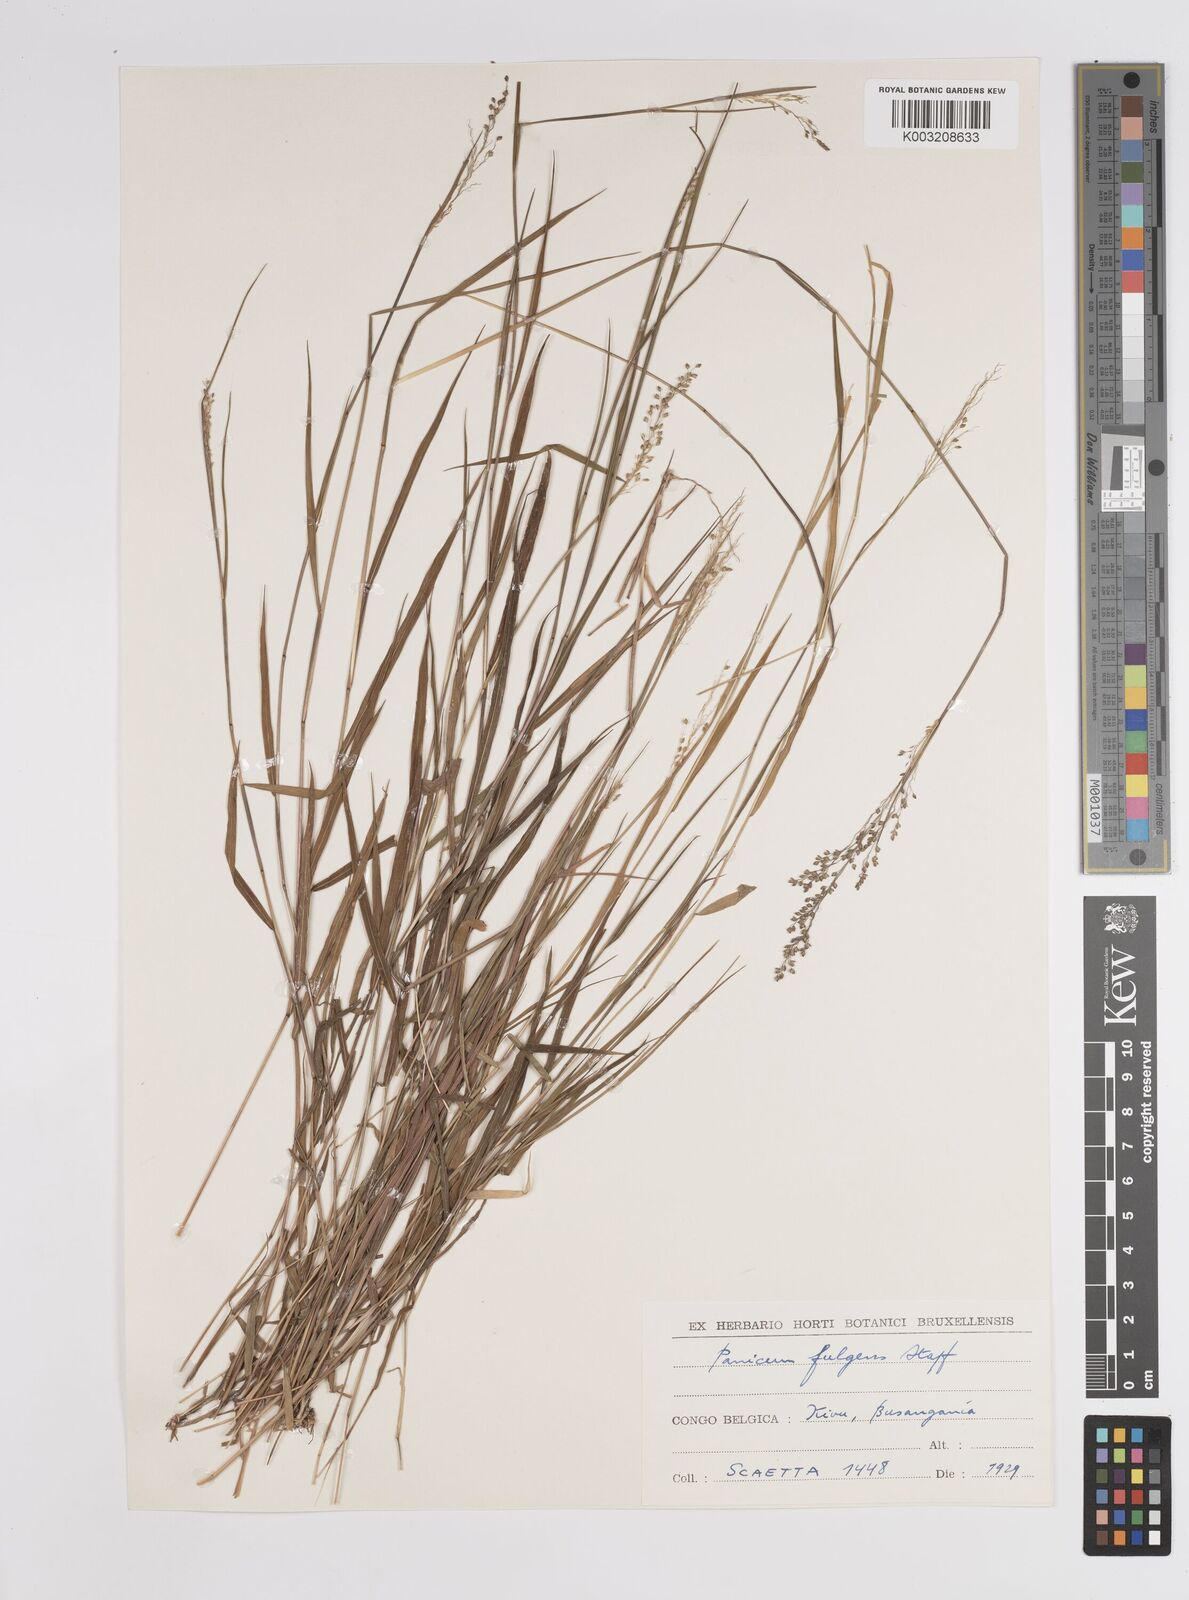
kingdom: Plantae
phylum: Tracheophyta
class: Liliopsida
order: Poales
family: Poaceae
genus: Trichanthecium
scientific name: Trichanthecium nervatum
